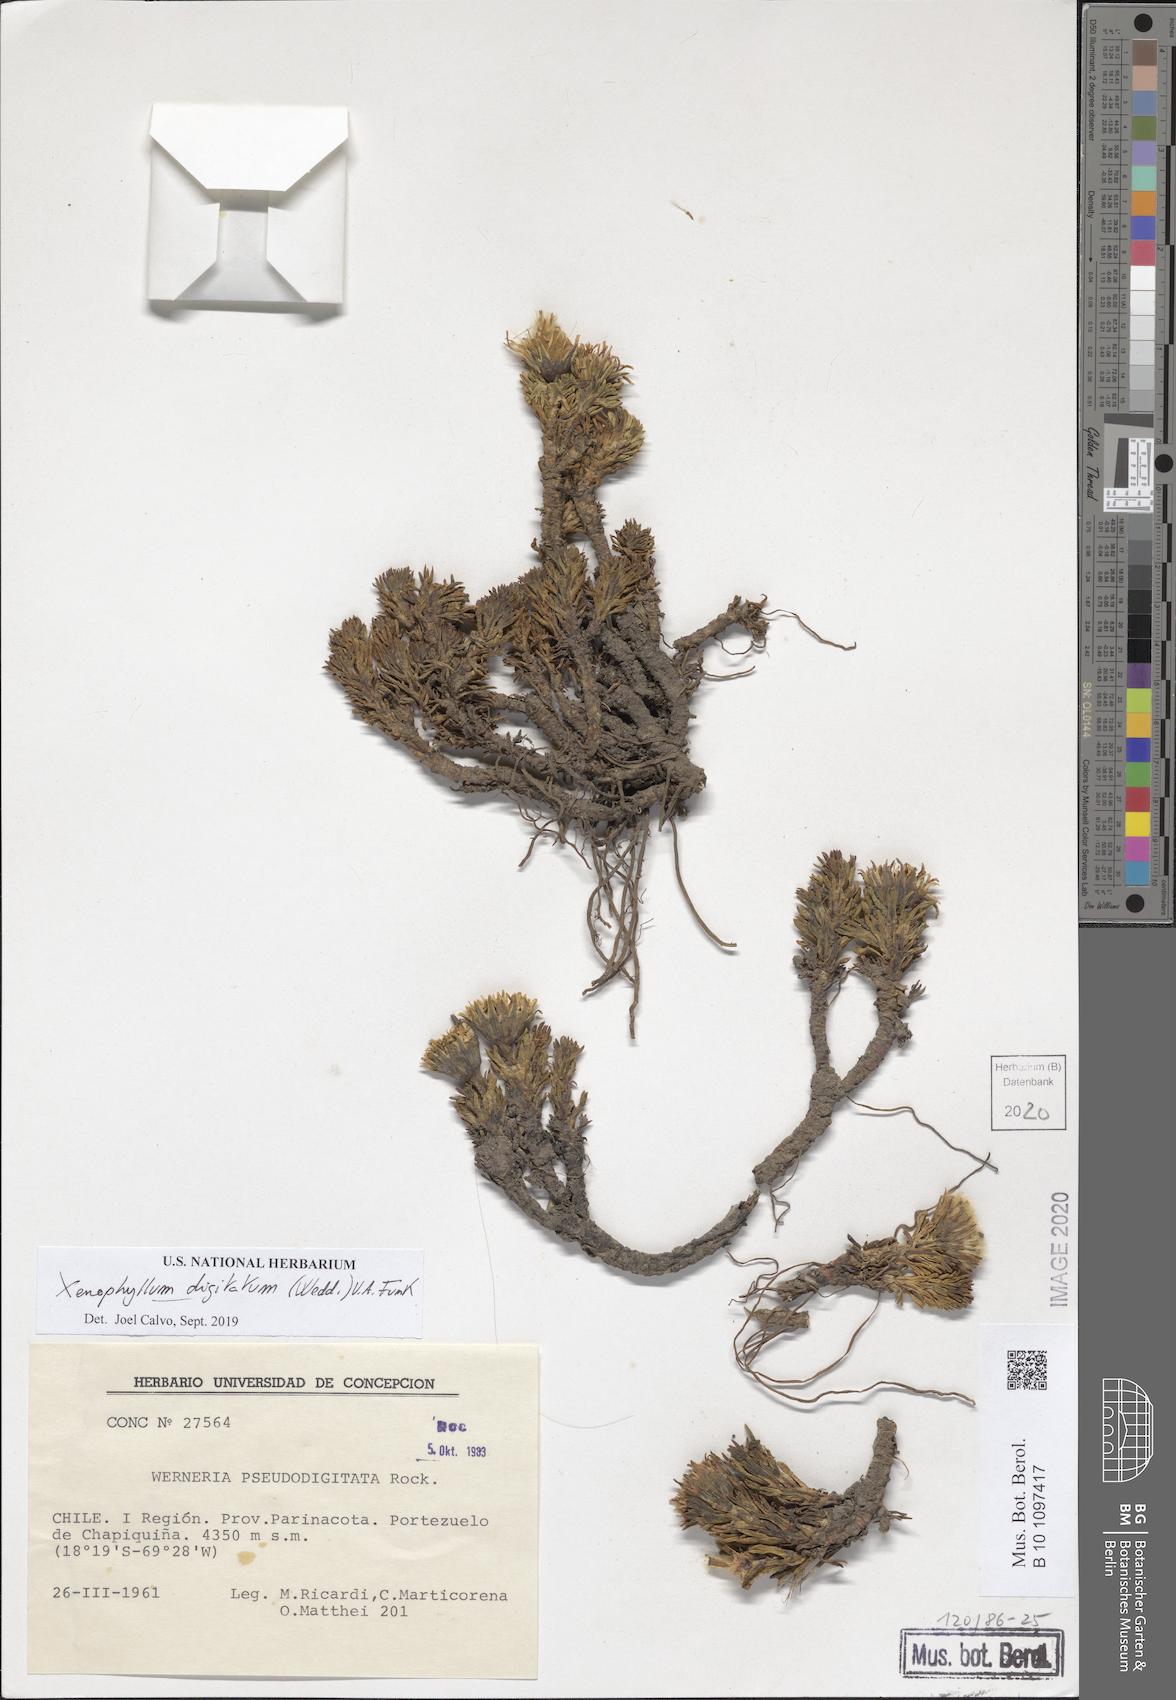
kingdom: Plantae
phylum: Tracheophyta
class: Magnoliopsida
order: Asterales
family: Asteraceae
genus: Werneria
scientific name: Werneria digitata
